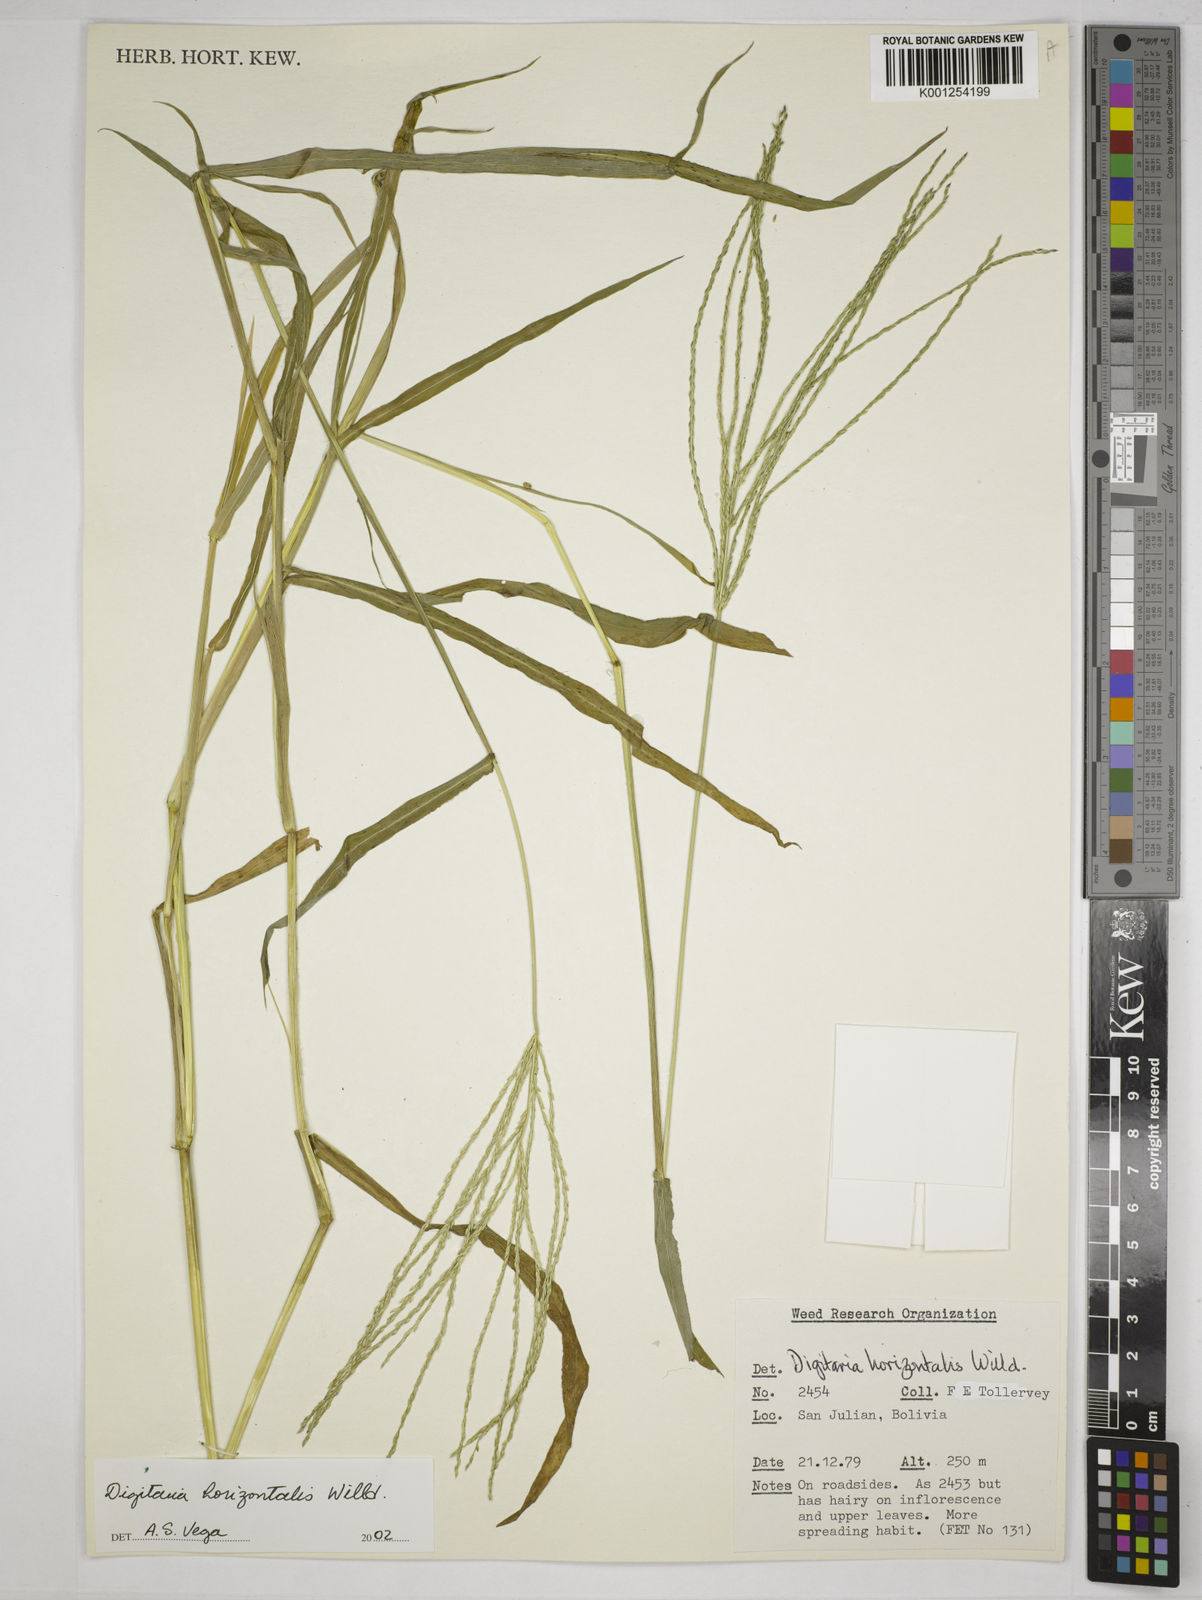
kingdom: Plantae
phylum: Tracheophyta
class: Liliopsida
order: Poales
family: Poaceae
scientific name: Poaceae
